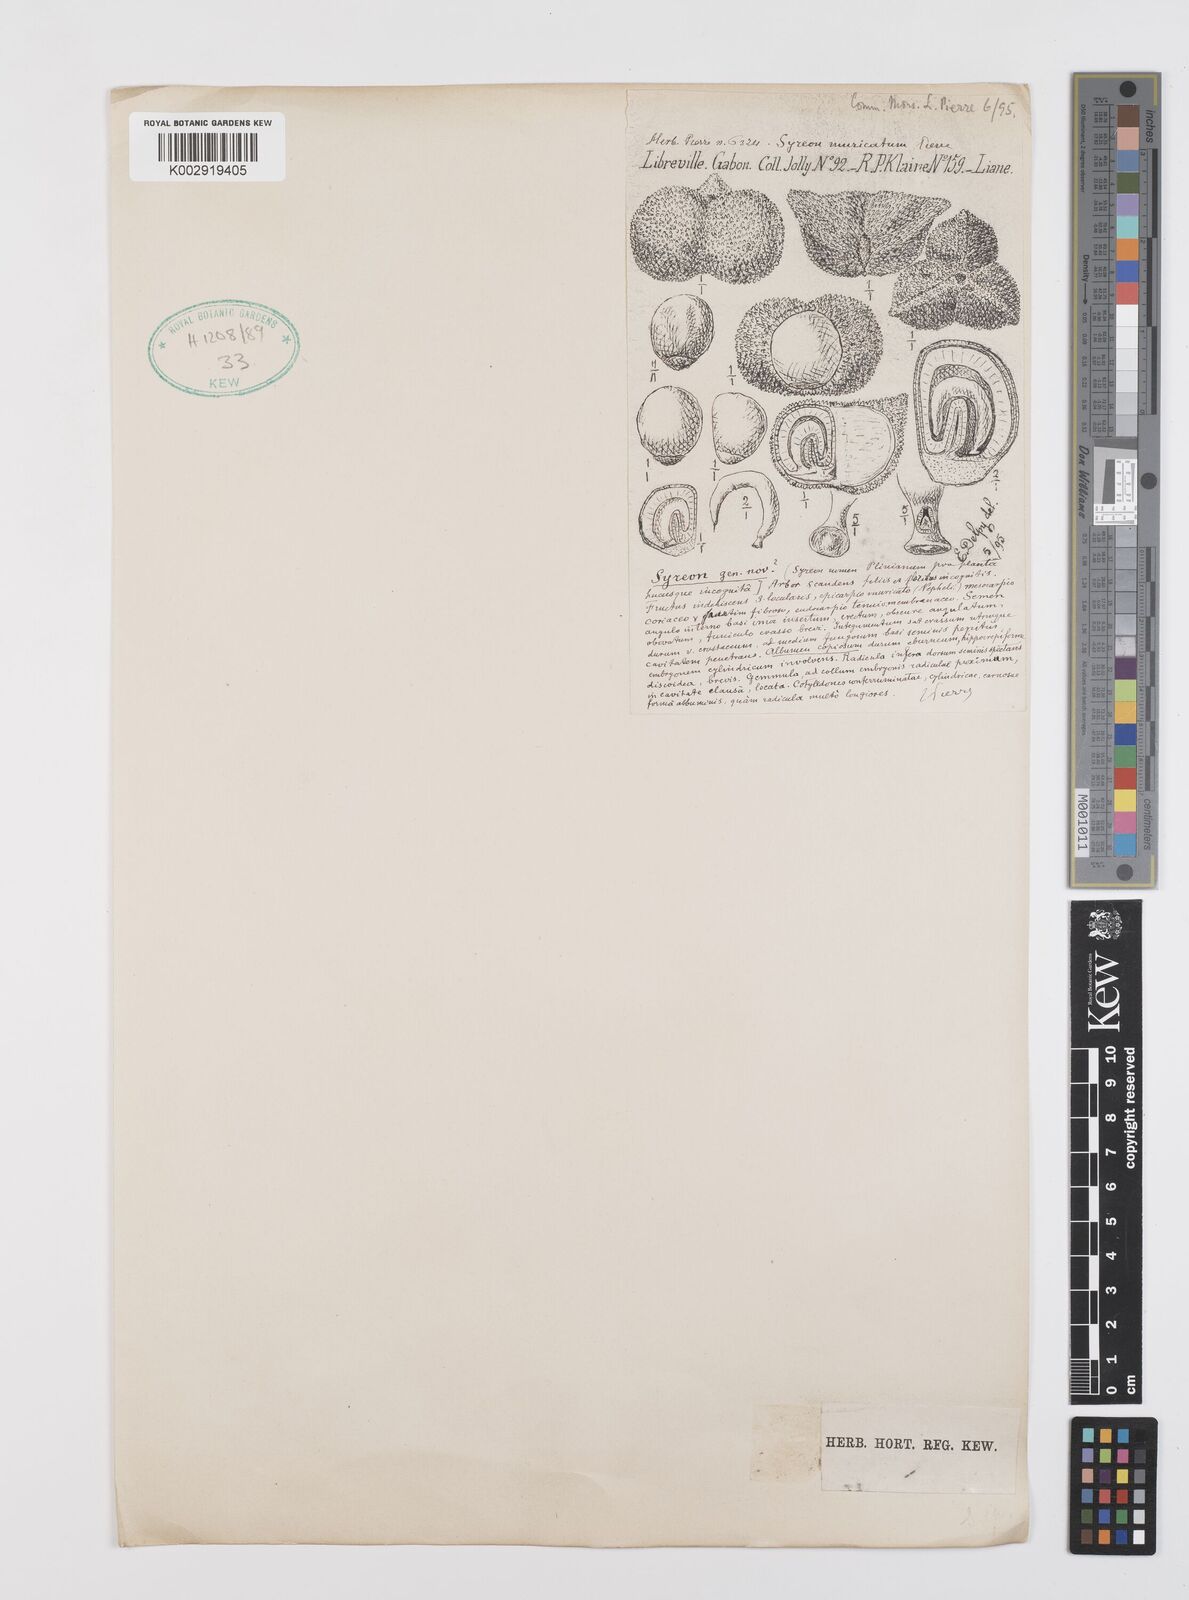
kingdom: Plantae
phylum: Tracheophyta
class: Liliopsida
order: Zingiberales
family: Marantaceae
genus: Haumania
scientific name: Haumania danckelmaniana
